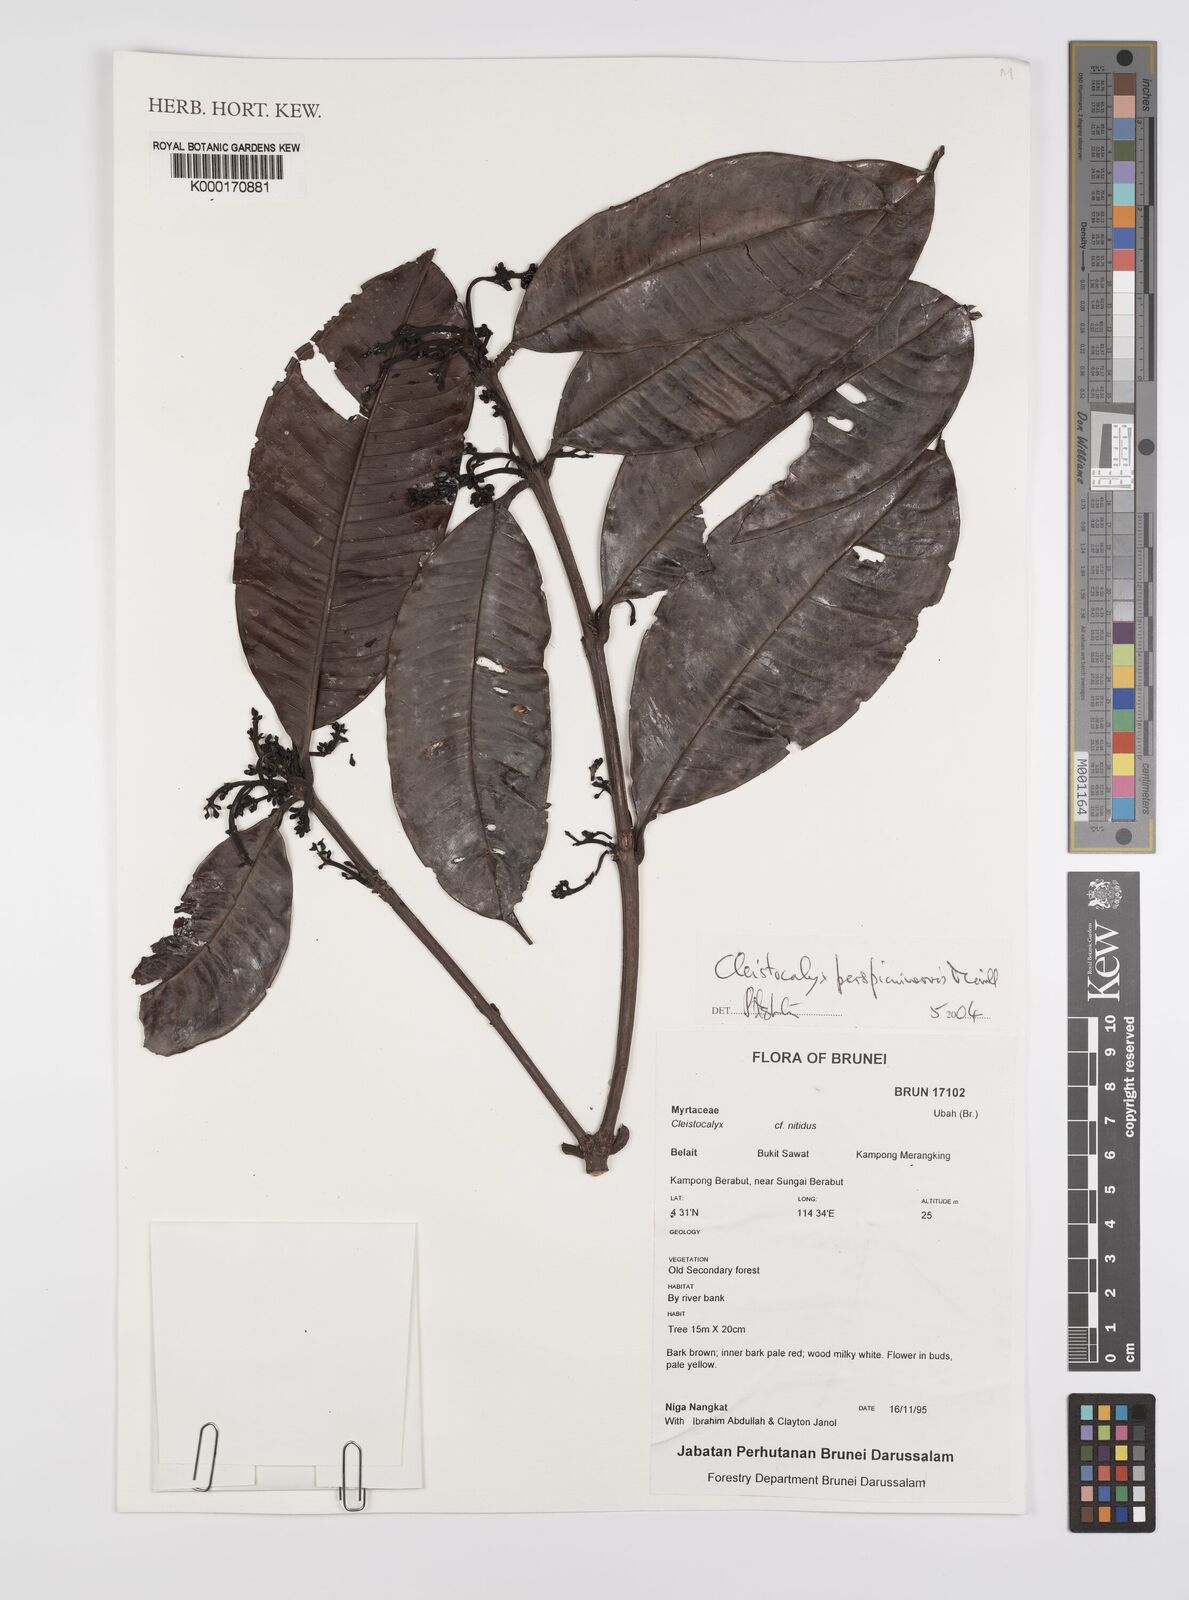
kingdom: Plantae
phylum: Tracheophyta
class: Magnoliopsida
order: Myrtales
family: Myrtaceae
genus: Syzygium
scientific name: Syzygium perspicuinervium
